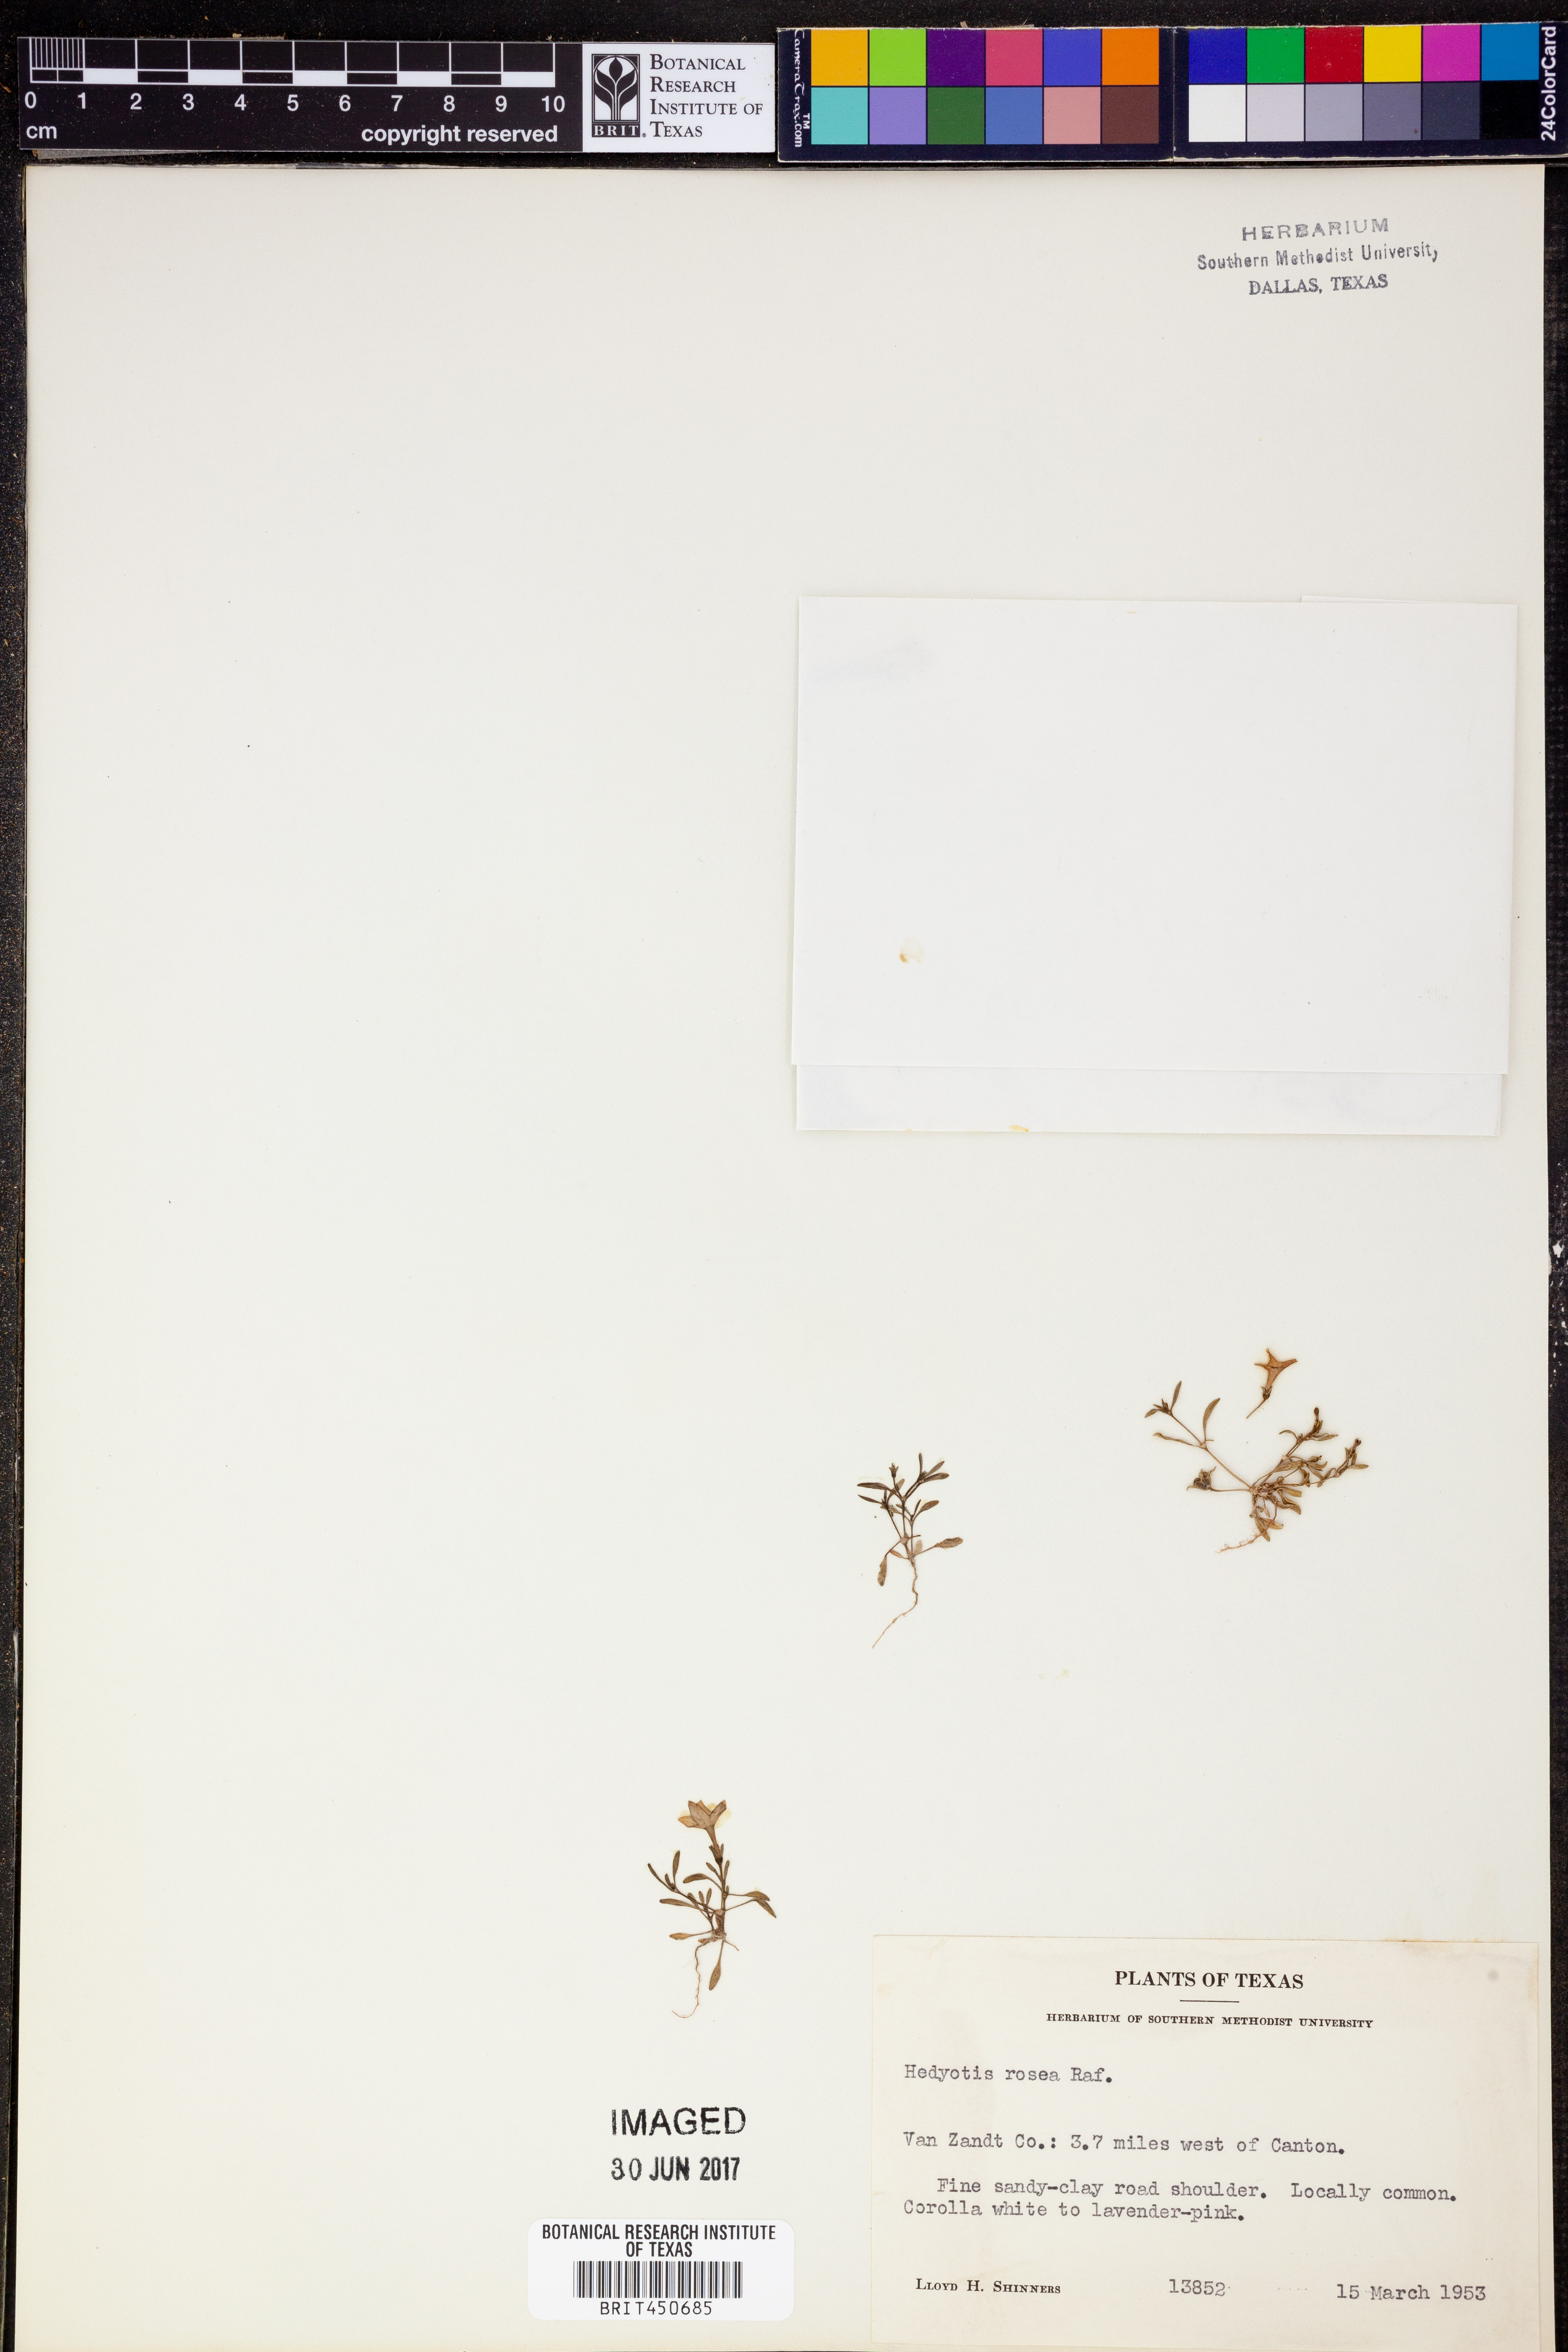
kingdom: Plantae
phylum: Tracheophyta
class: Magnoliopsida
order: Gentianales
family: Rubiaceae
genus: Houstonia
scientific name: Houstonia rosea
